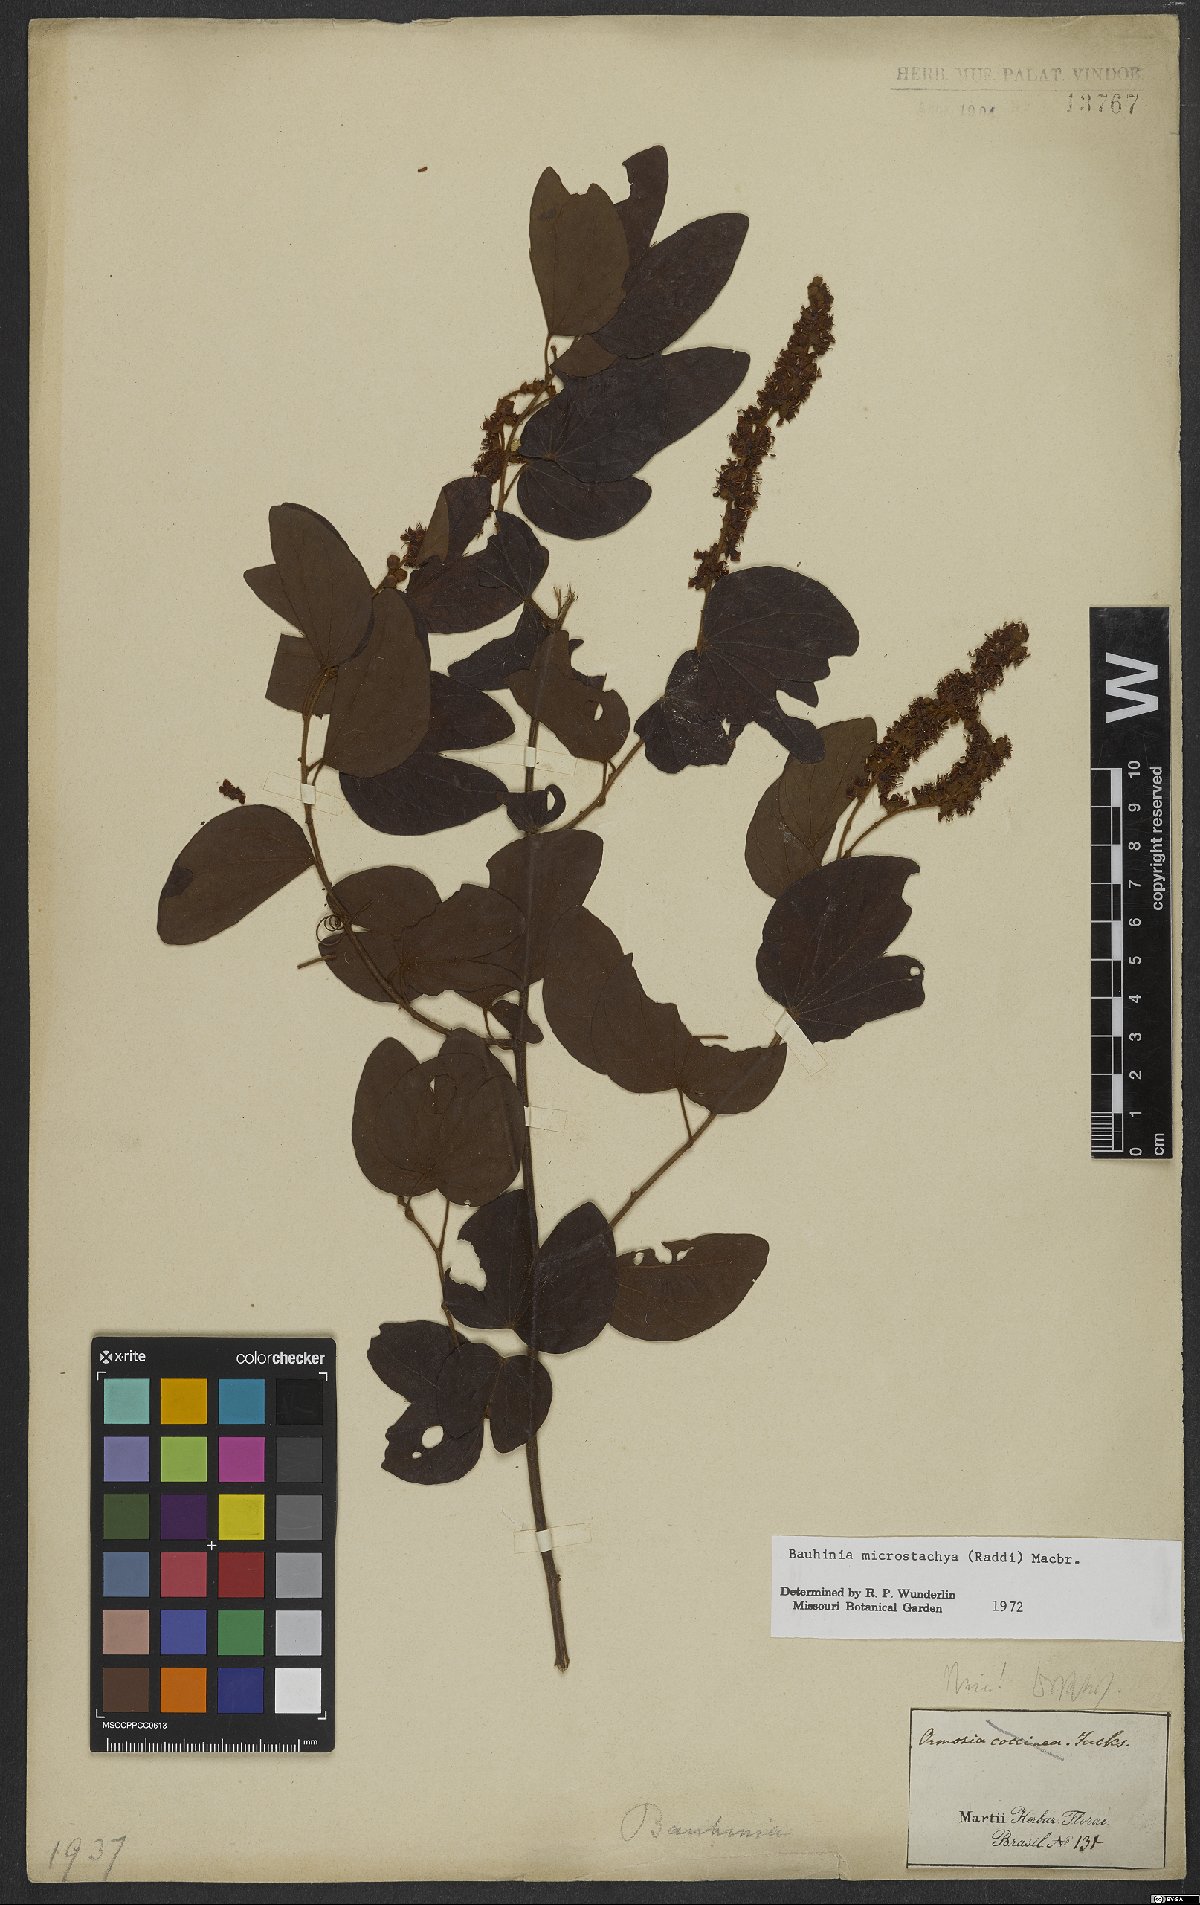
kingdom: Plantae
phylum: Tracheophyta
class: Magnoliopsida
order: Fabales
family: Fabaceae
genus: Schnella
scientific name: Schnella microstachya
